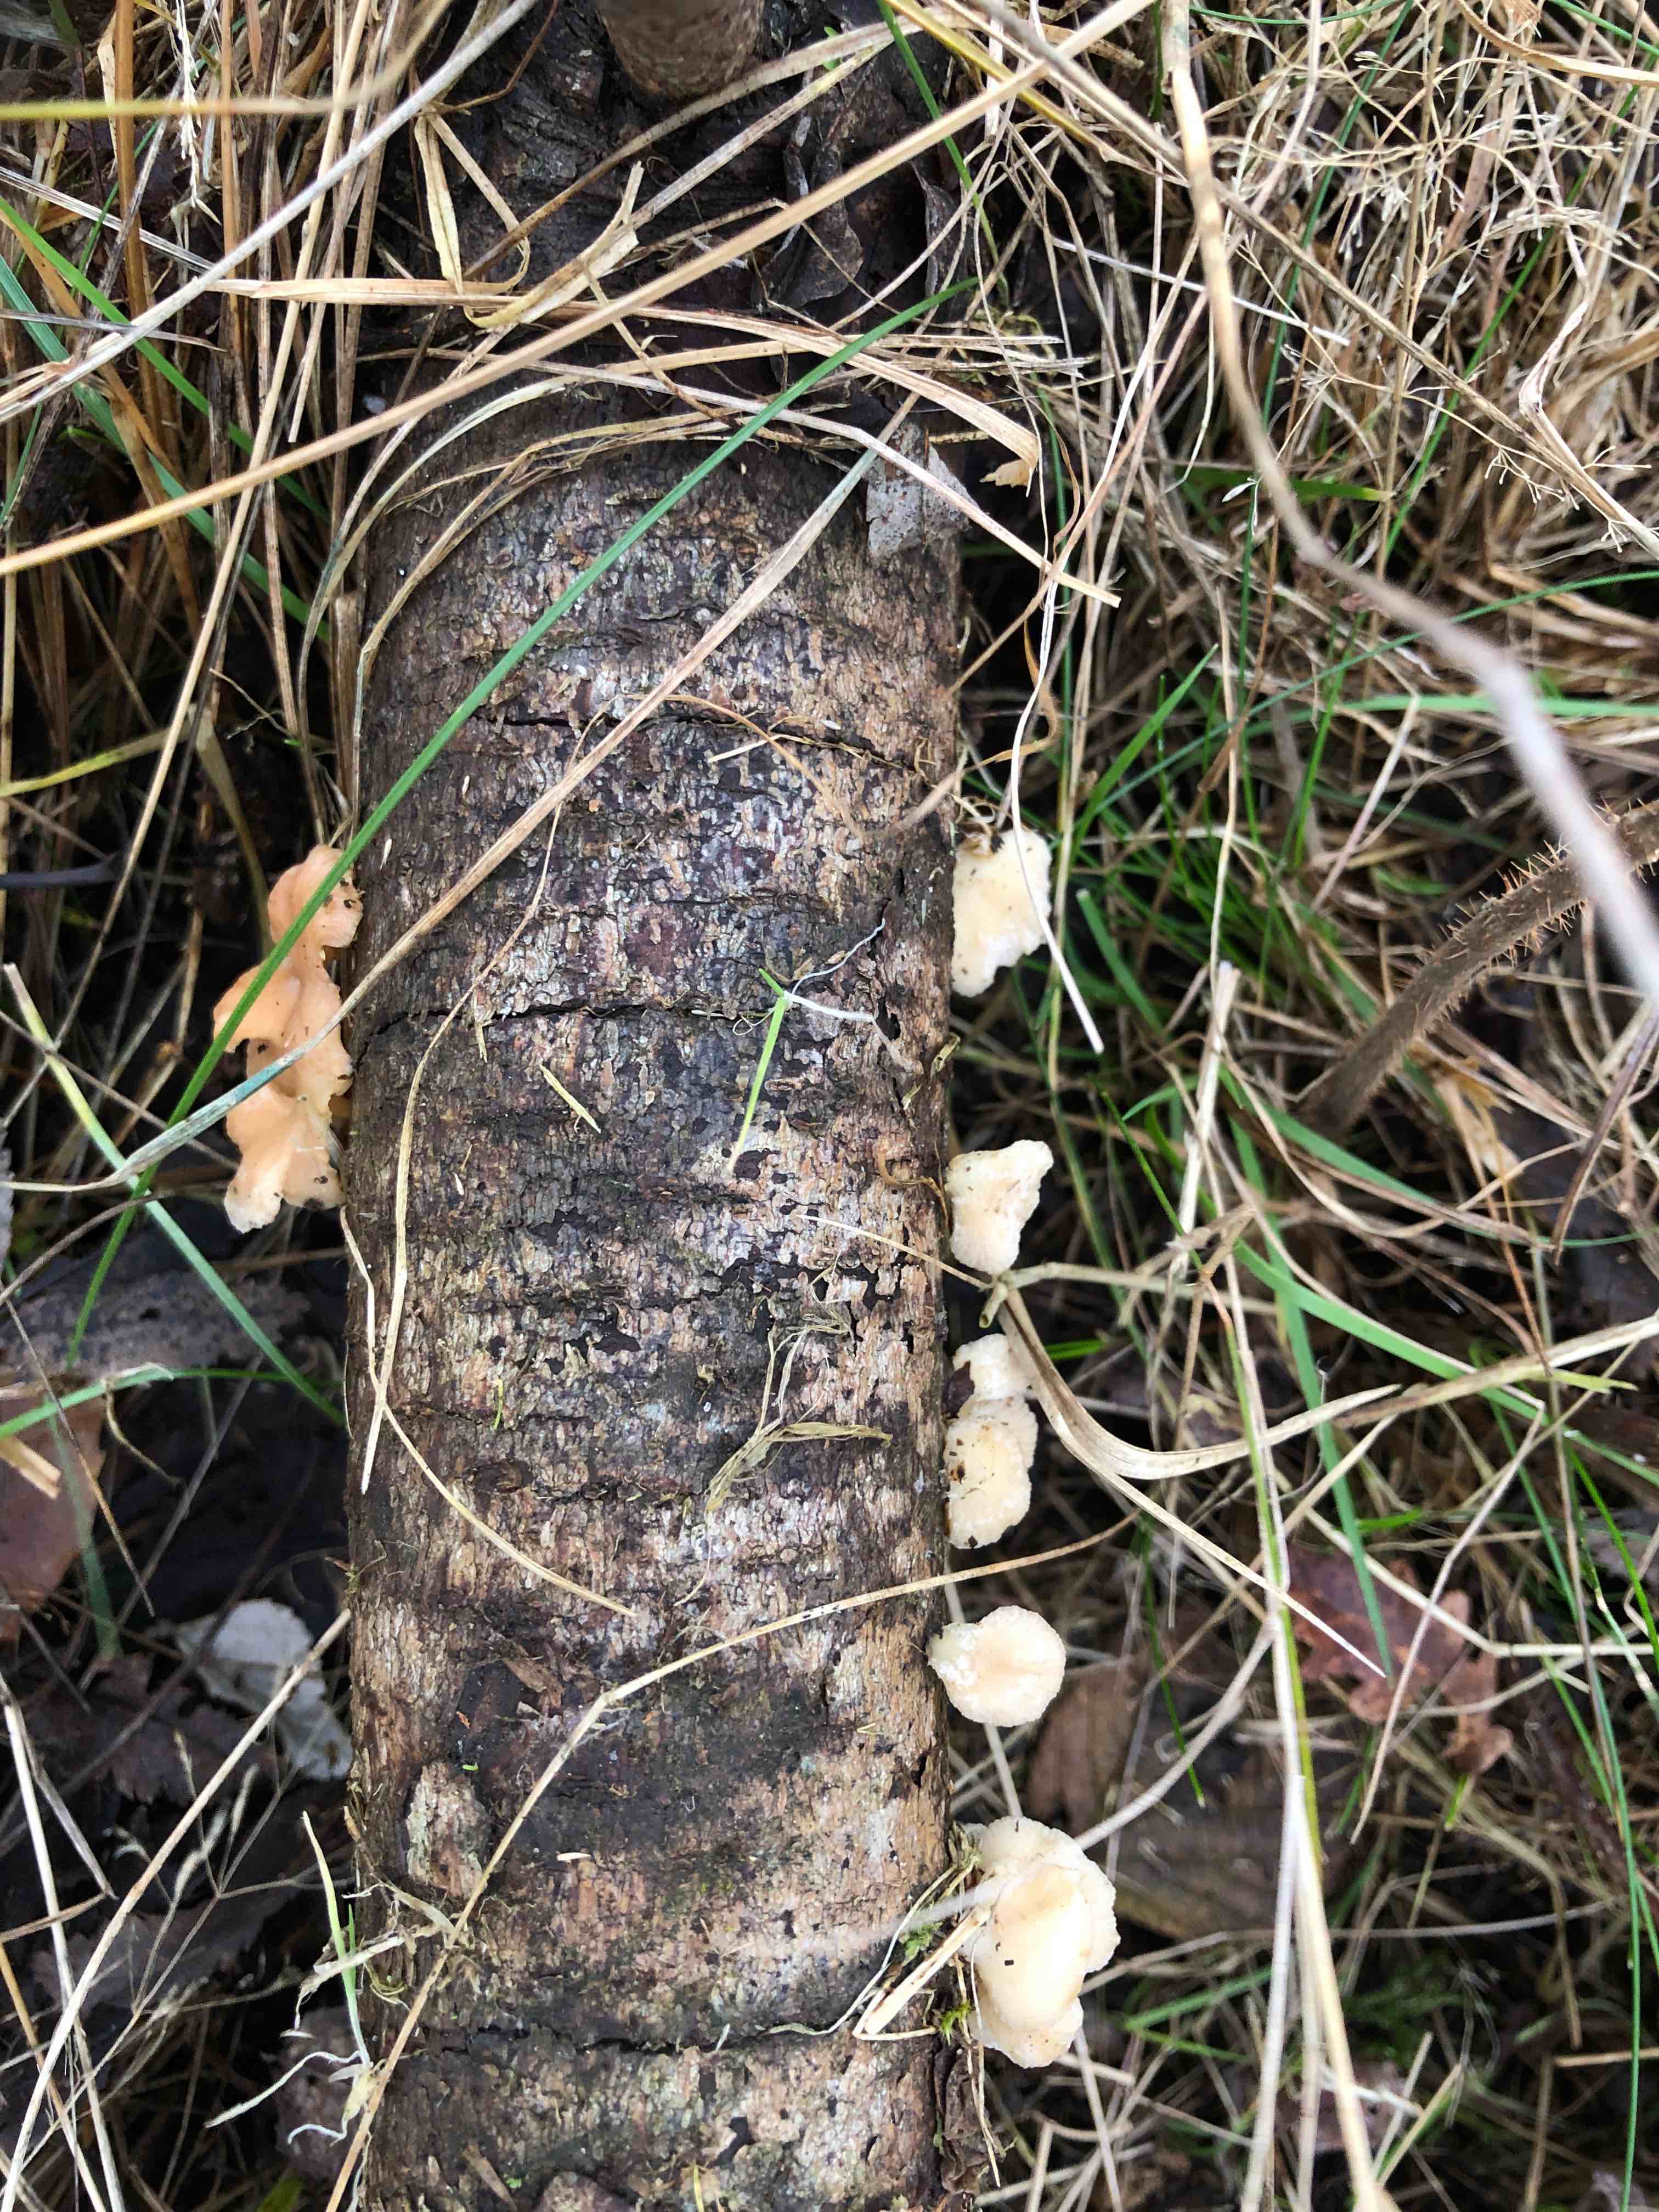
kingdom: Fungi
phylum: Basidiomycota
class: Agaricomycetes
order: Agaricales
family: Mycenaceae
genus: Panellus
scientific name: Panellus mitis
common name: mild epaulethat
